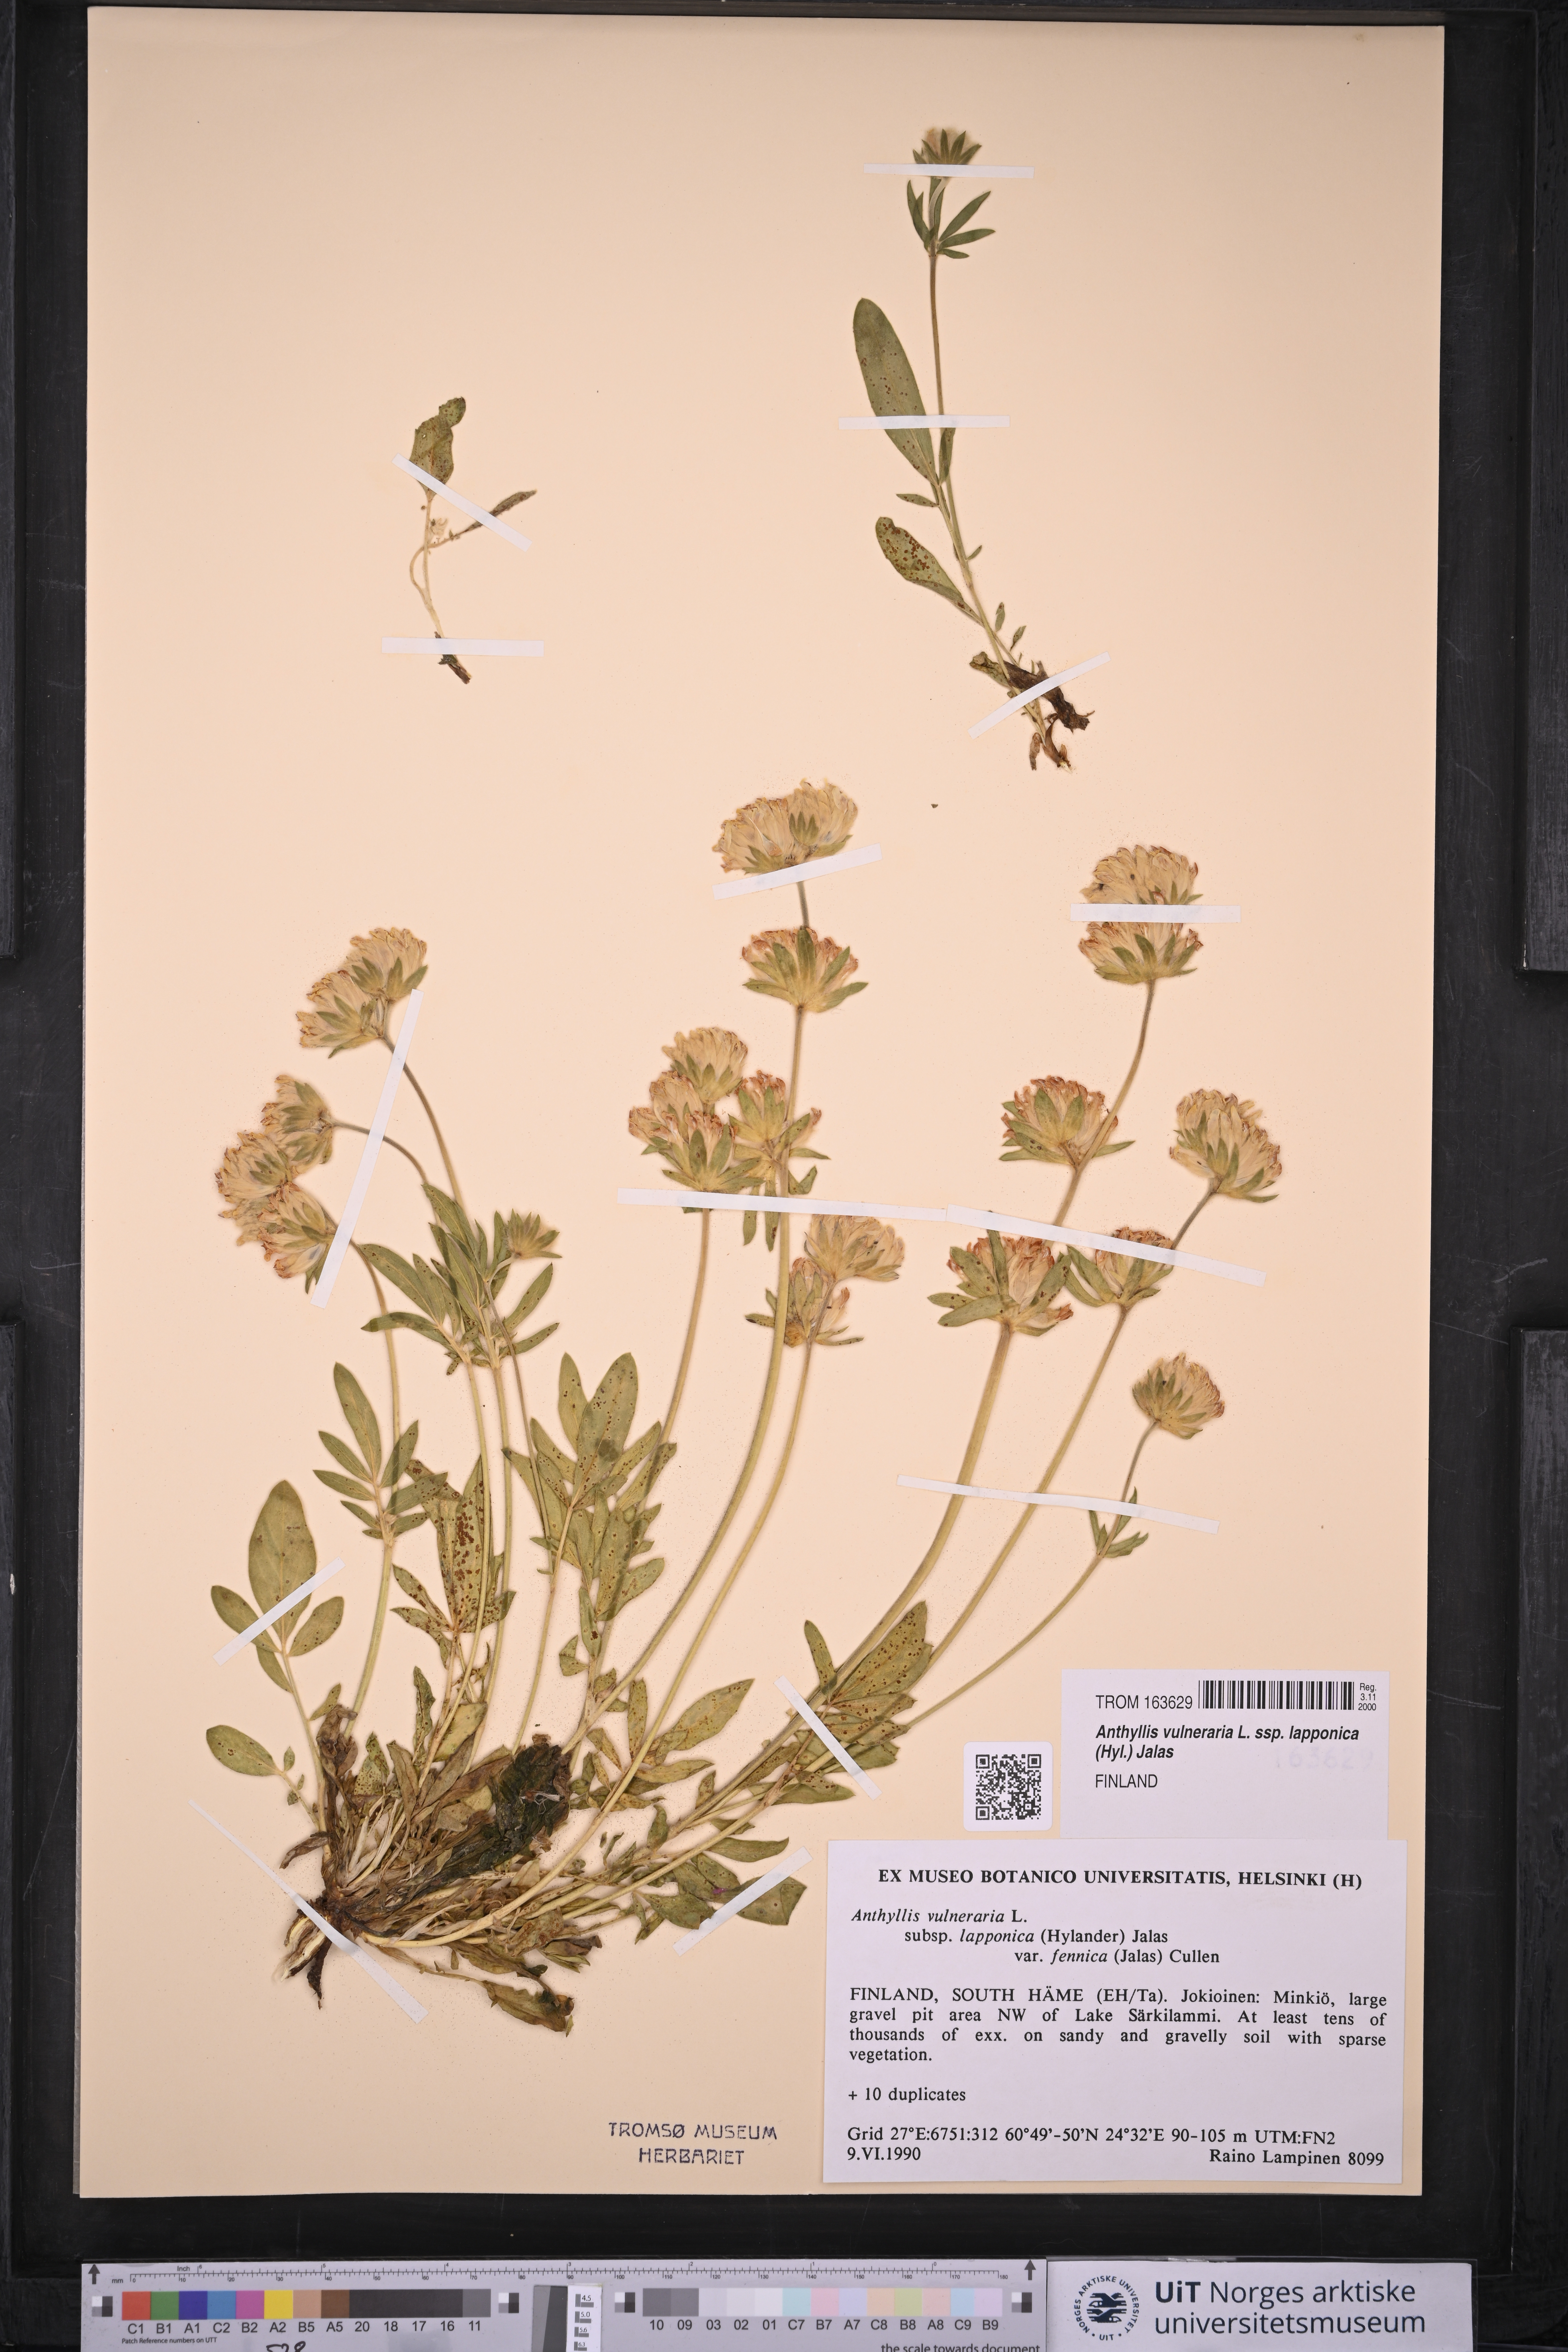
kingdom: Plantae
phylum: Tracheophyta
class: Magnoliopsida
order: Fabales
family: Fabaceae
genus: Anthyllis
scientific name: Anthyllis vulneraria
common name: Kidney vetch
